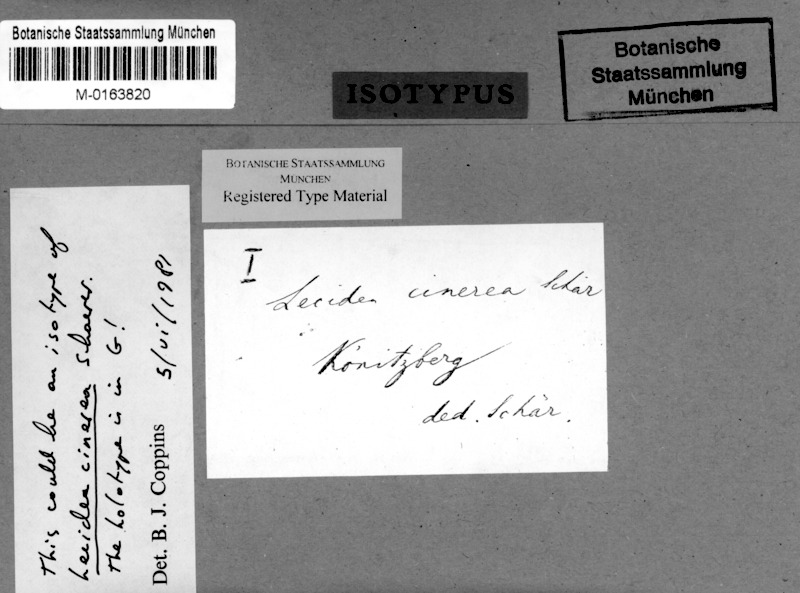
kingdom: Fungi
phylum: Ascomycota
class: Lecanoromycetes
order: Lecanorales
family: Byssolomataceae
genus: Micarea
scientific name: Micarea cinerea
